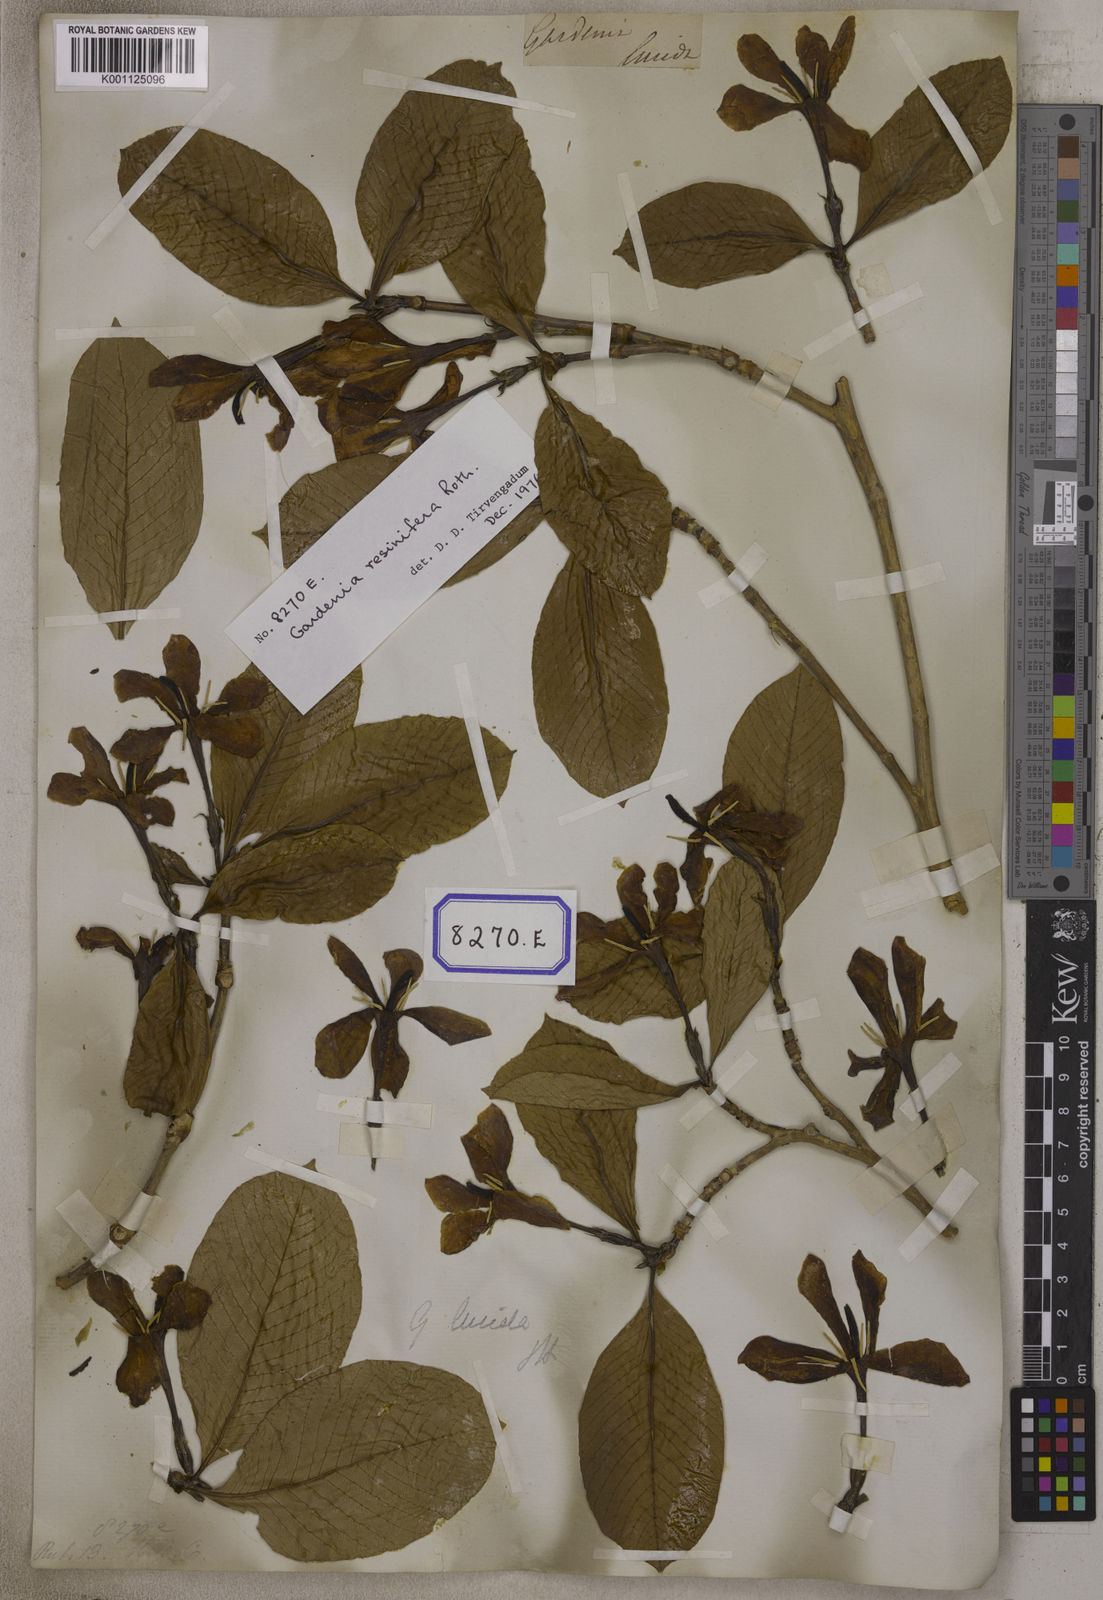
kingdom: Plantae
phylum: Tracheophyta
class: Magnoliopsida
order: Gentianales
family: Rubiaceae
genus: Gardenia
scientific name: Gardenia resinifera
